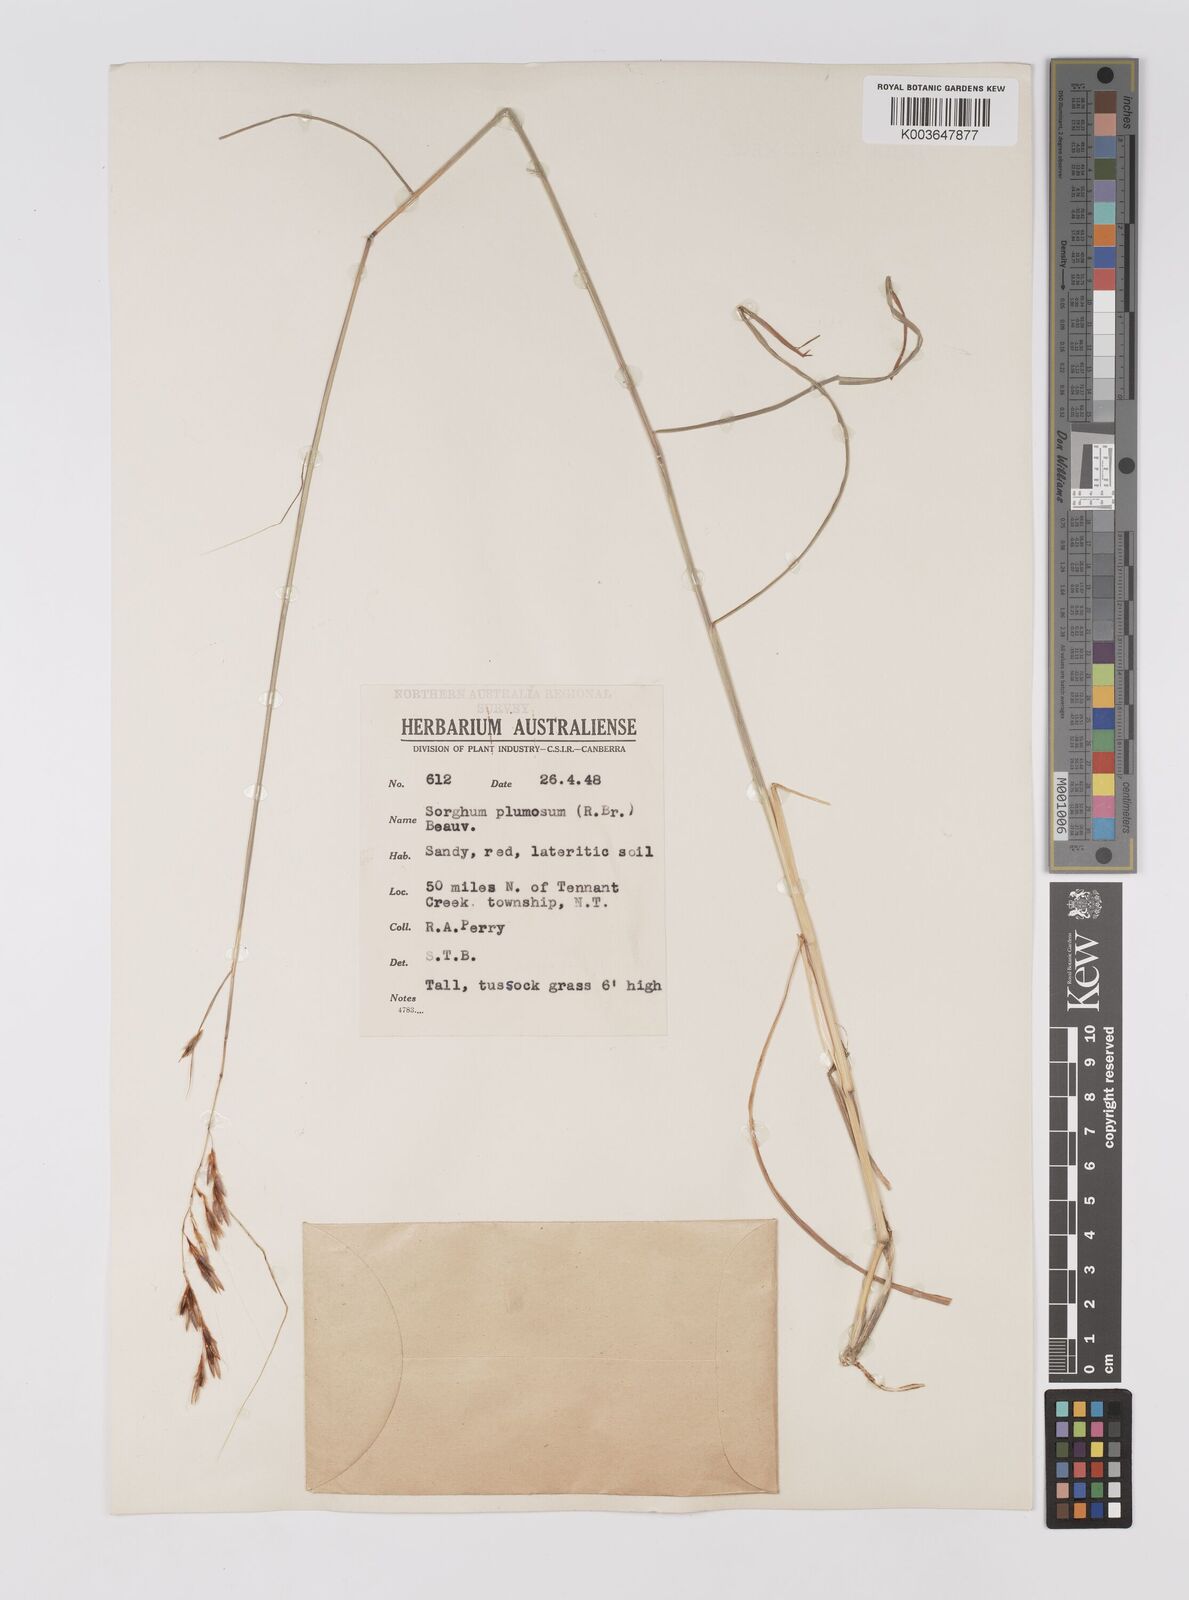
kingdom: Plantae
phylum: Tracheophyta
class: Liliopsida
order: Poales
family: Poaceae
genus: Sarga
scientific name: Sarga plumosa
